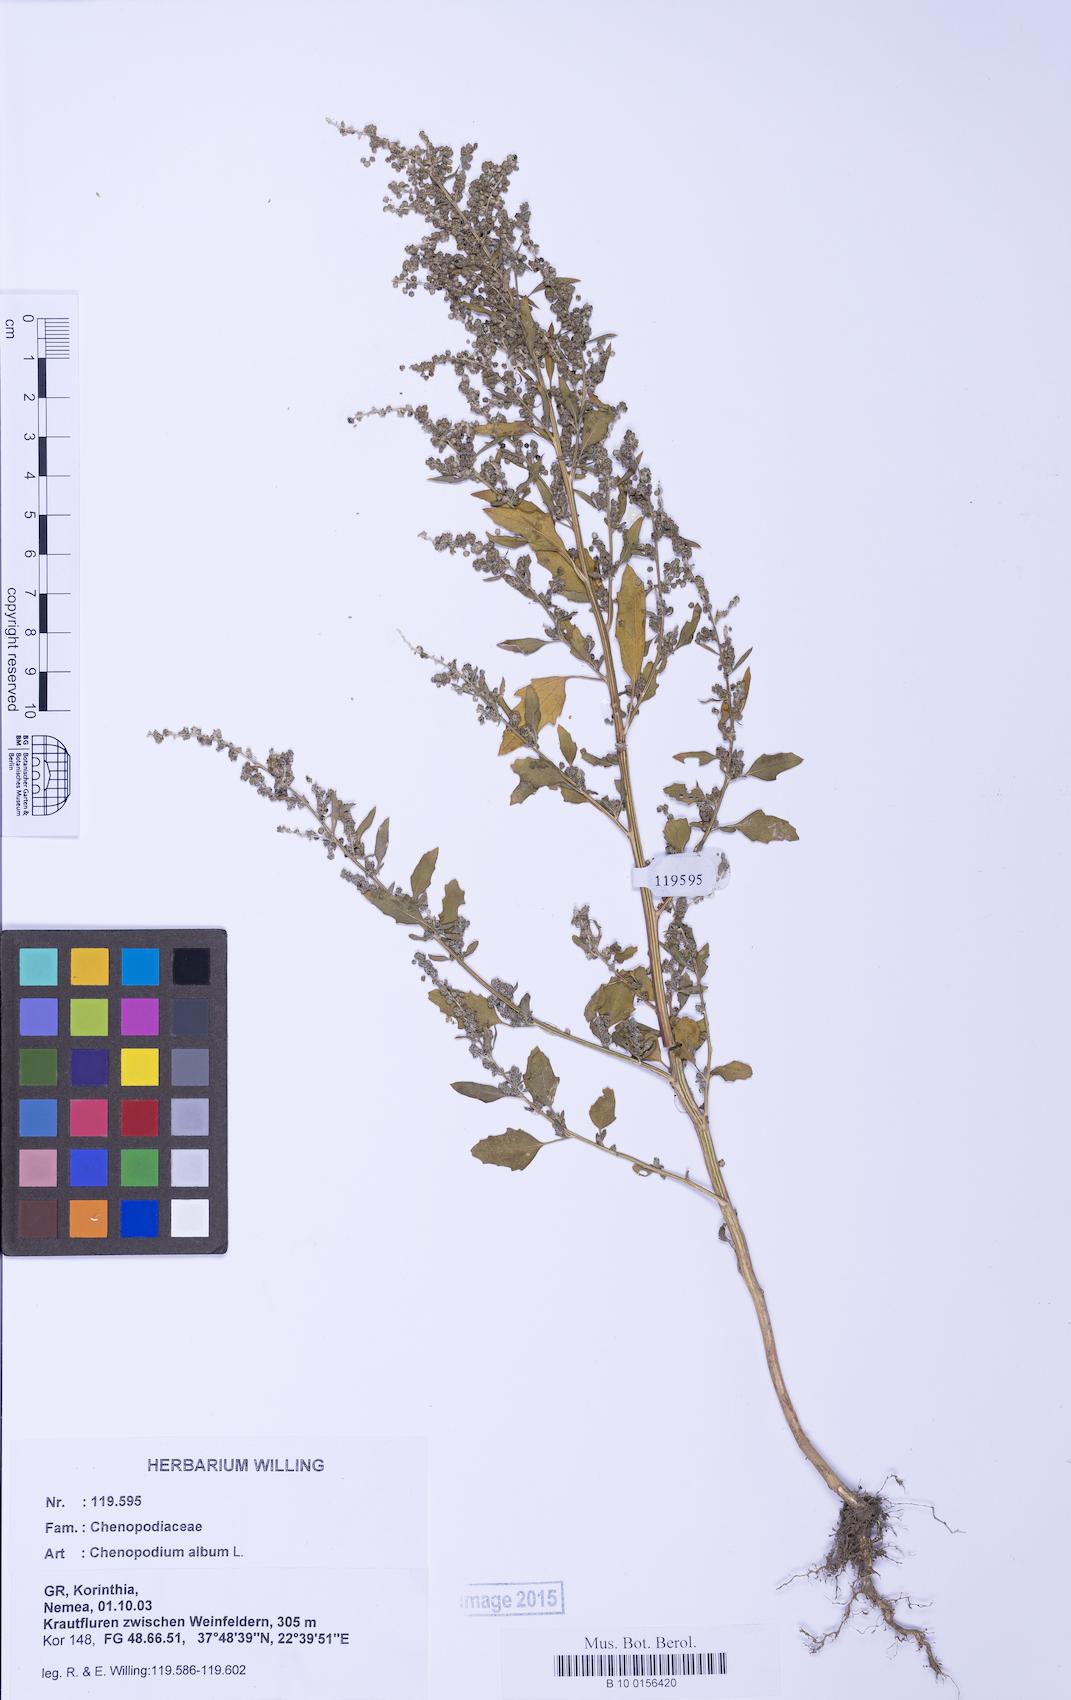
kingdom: Plantae
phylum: Tracheophyta
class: Magnoliopsida
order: Caryophyllales
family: Amaranthaceae
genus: Chenopodium
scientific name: Chenopodium album
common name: Fat-hen
